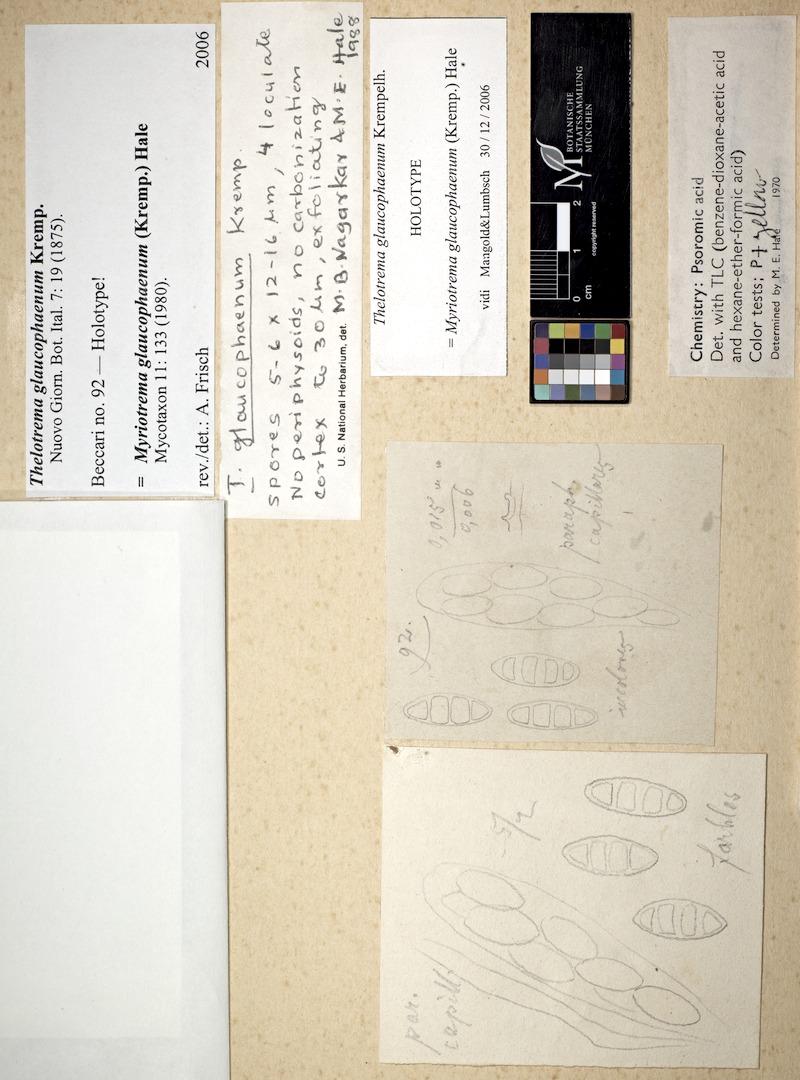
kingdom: Fungi
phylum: Ascomycota
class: Lecanoromycetes
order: Ostropales
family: Graphidaceae
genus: Glaucotrema
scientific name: Glaucotrema glaucophaenum
